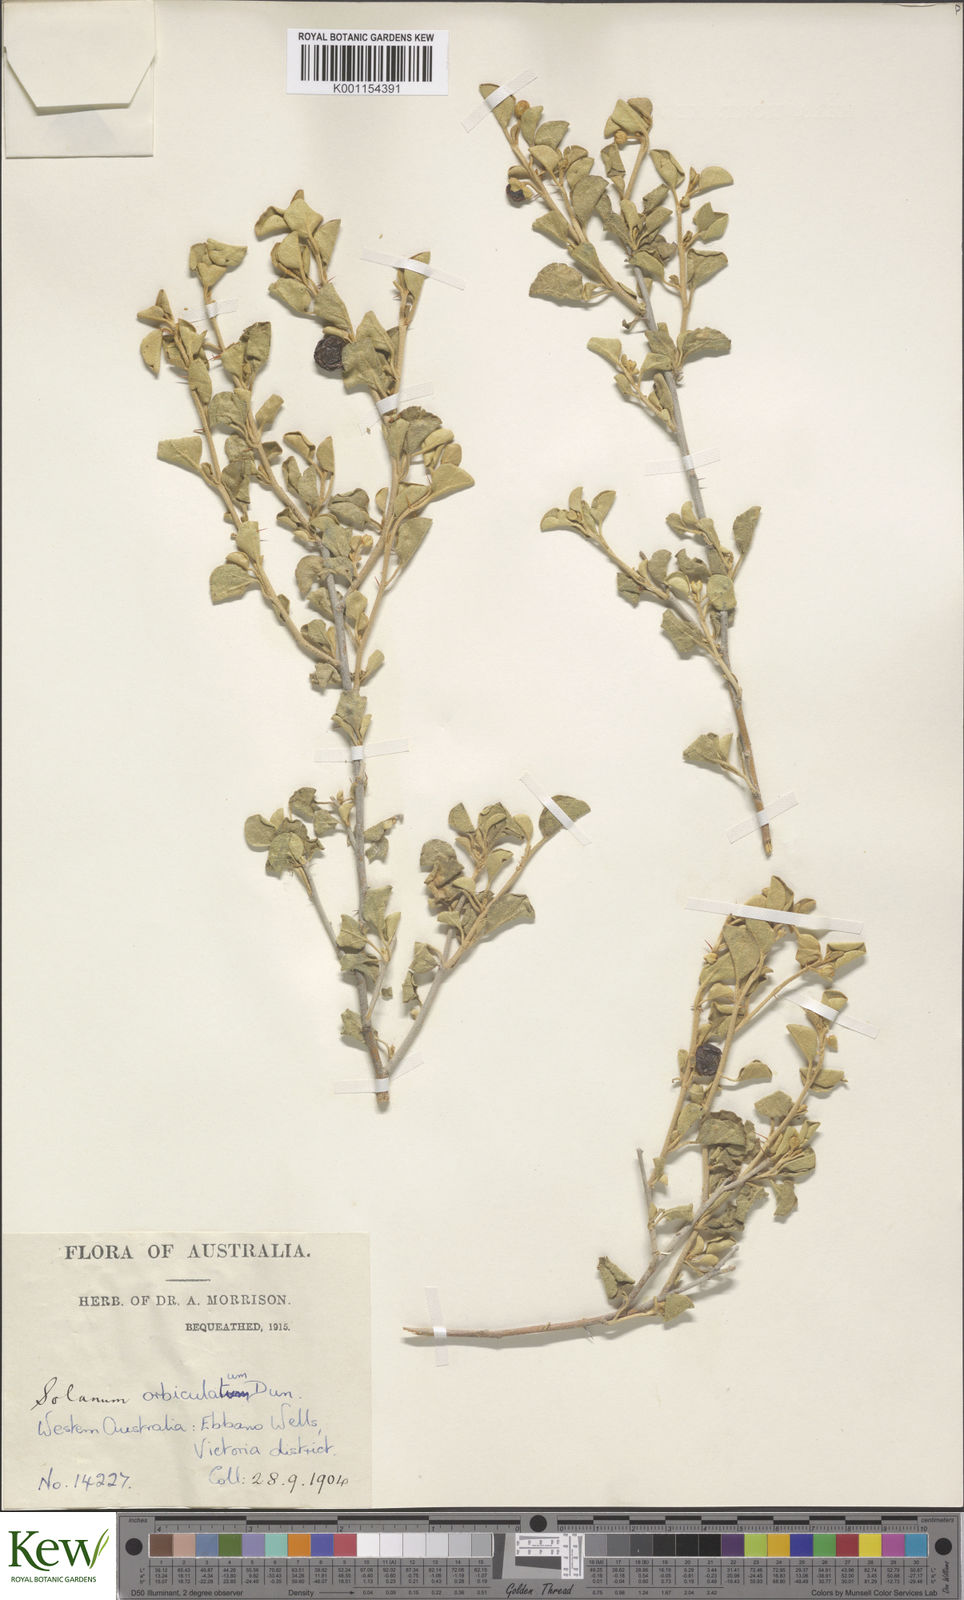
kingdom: Plantae
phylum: Tracheophyta
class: Magnoliopsida
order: Solanales
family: Solanaceae
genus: Solanum
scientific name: Solanum orbiculatum
